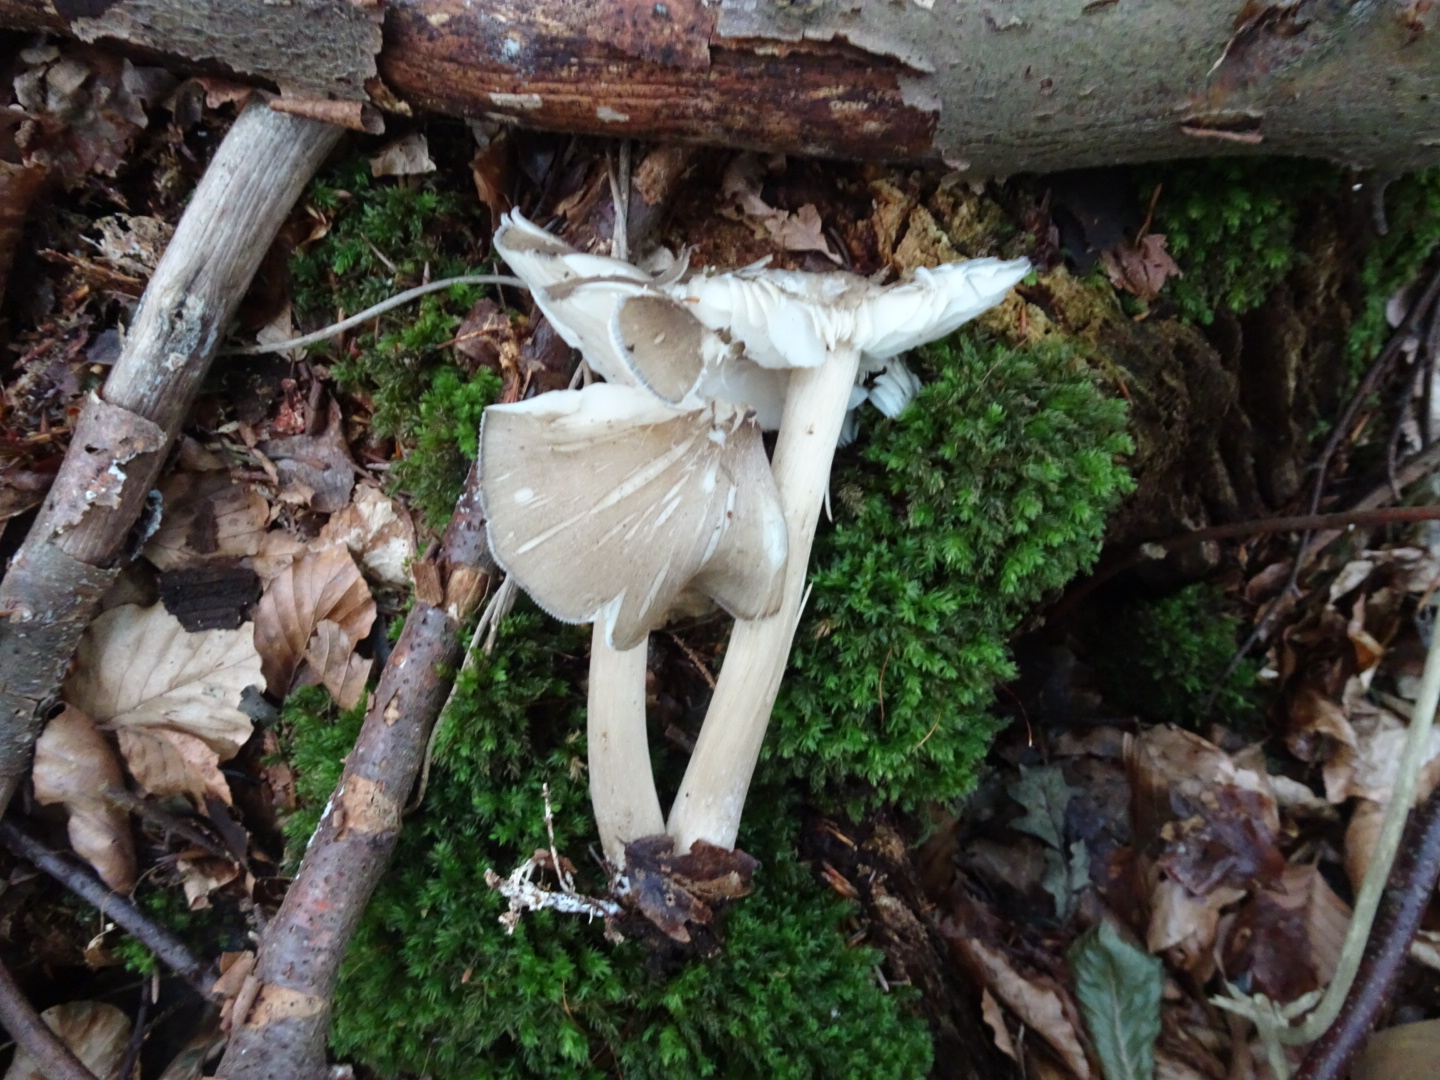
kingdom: Fungi
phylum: Basidiomycota
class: Agaricomycetes
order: Agaricales
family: Tricholomataceae
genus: Megacollybia
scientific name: Megacollybia platyphylla
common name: bredbladet væbnerhat
